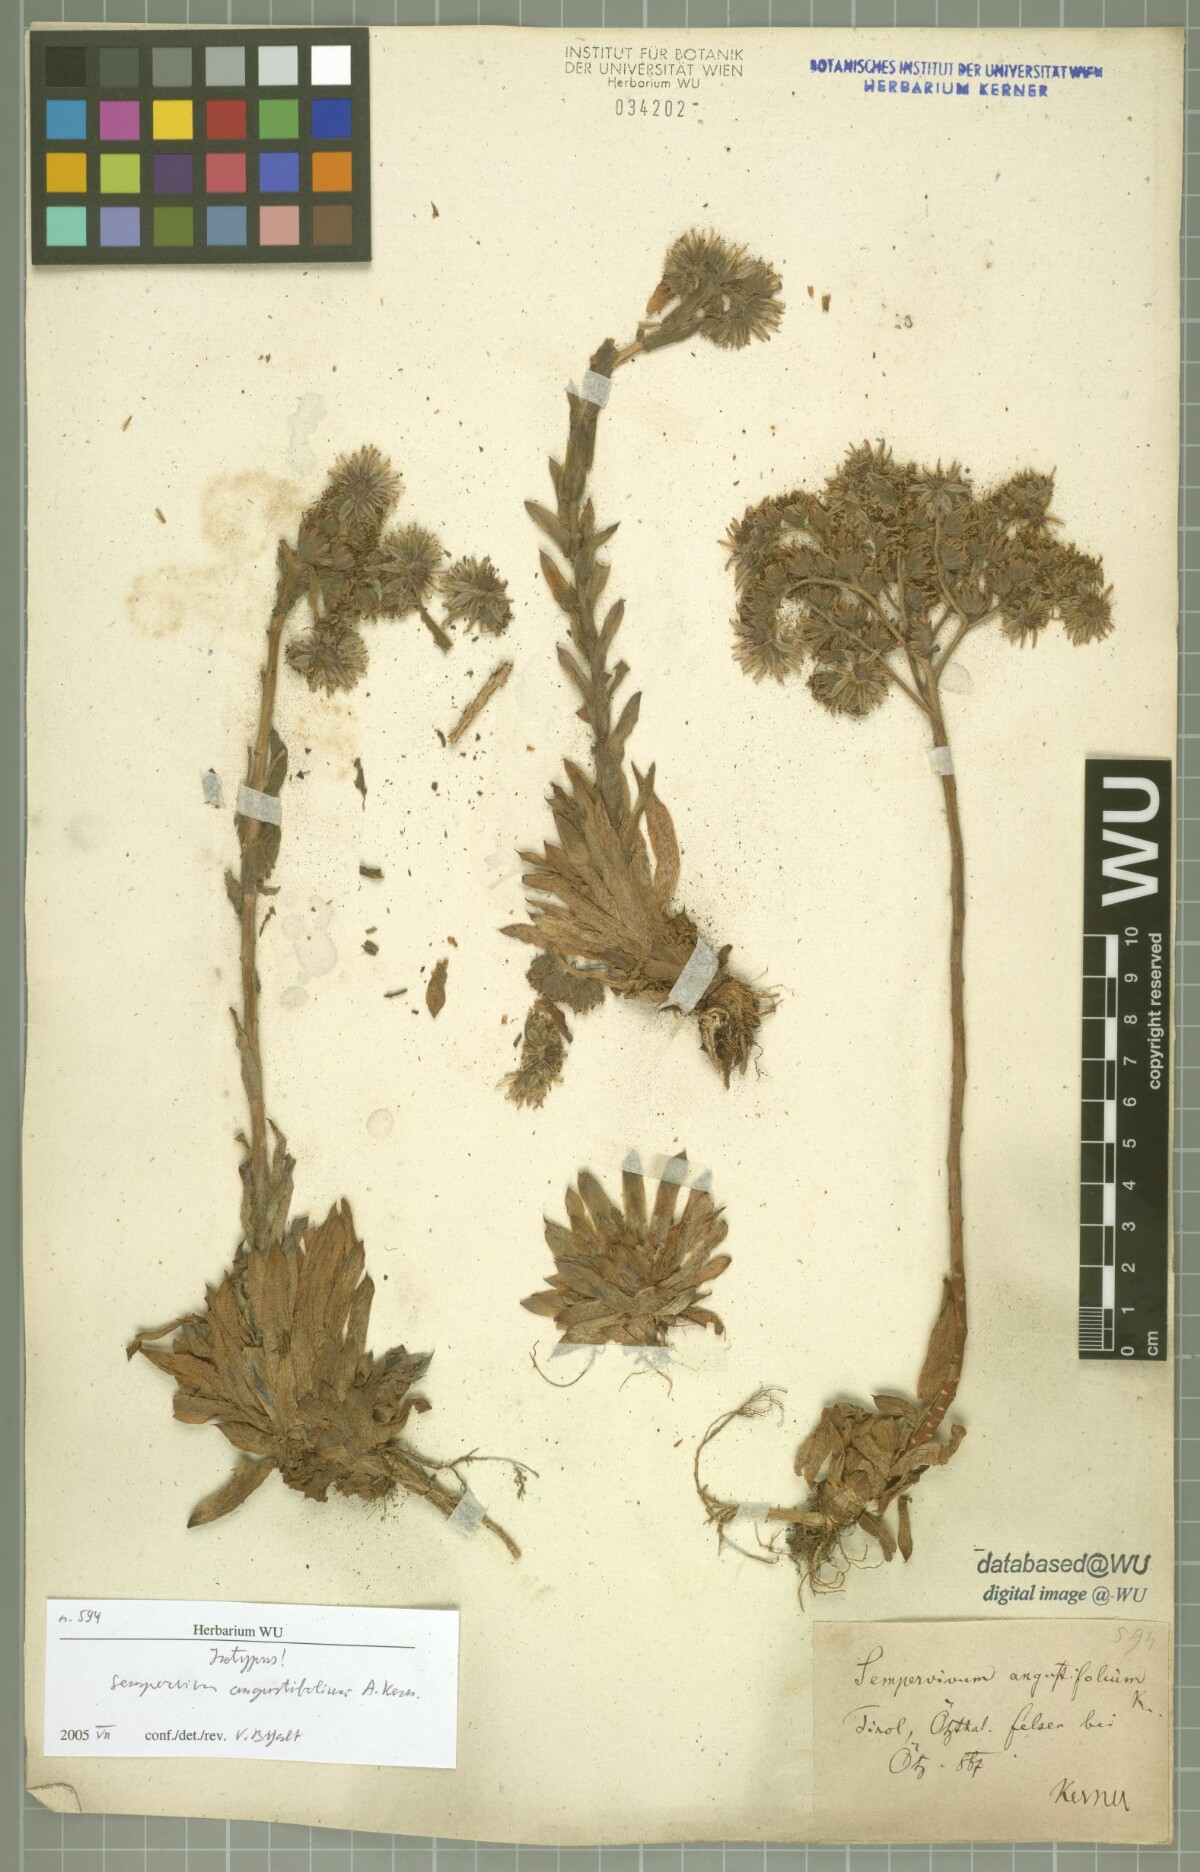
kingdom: Plantae
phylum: Tracheophyta
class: Magnoliopsida
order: Saxifragales
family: Crassulaceae
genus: Sempervivum
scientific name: Sempervivum alatum
